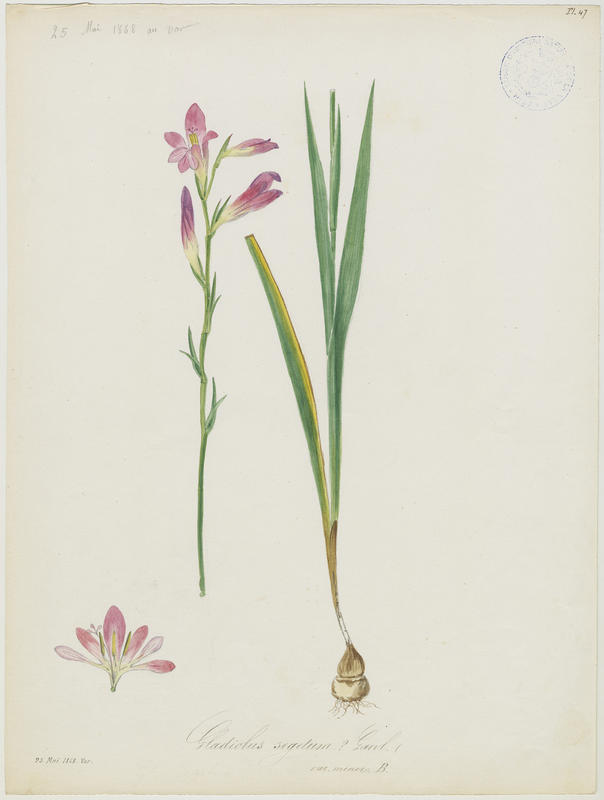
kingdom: Plantae
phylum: Tracheophyta
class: Liliopsida
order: Asparagales
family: Iridaceae
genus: Gladiolus
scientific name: Gladiolus byzantinus
